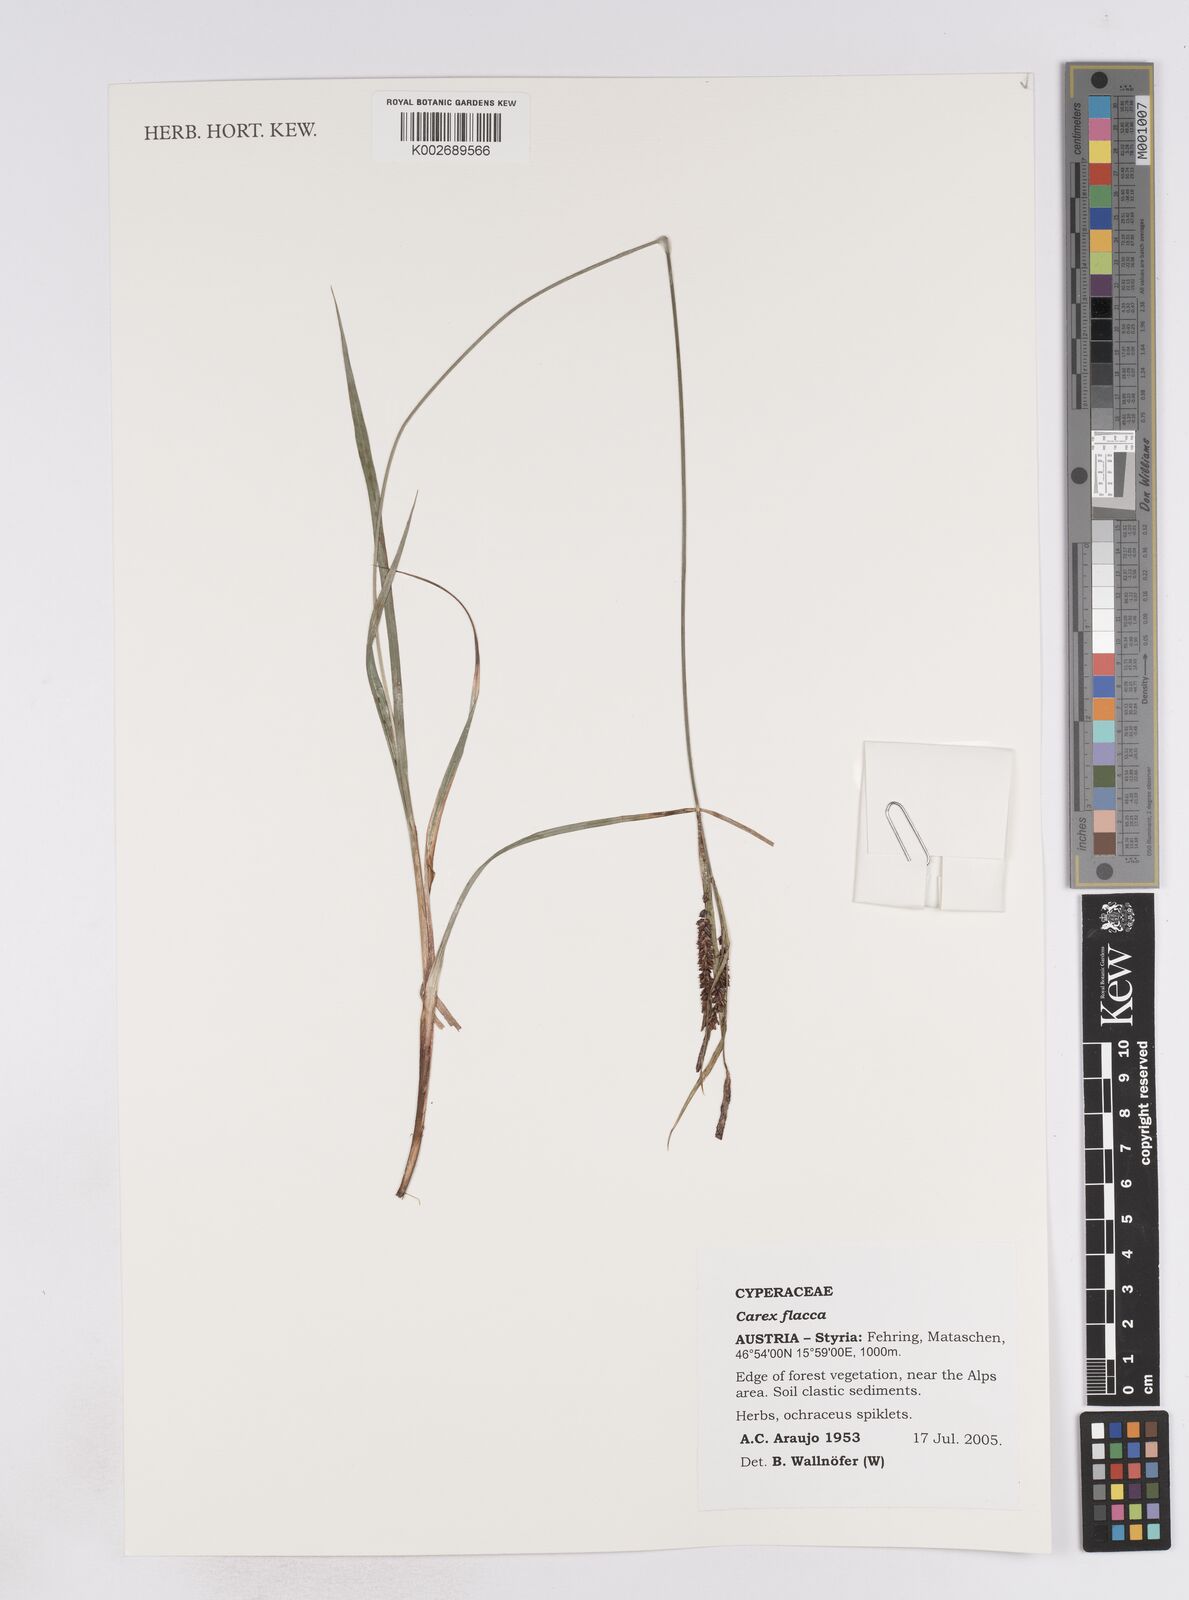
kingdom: Plantae
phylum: Tracheophyta
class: Liliopsida
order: Poales
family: Cyperaceae
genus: Carex
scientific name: Carex flacca
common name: Glaucous sedge
